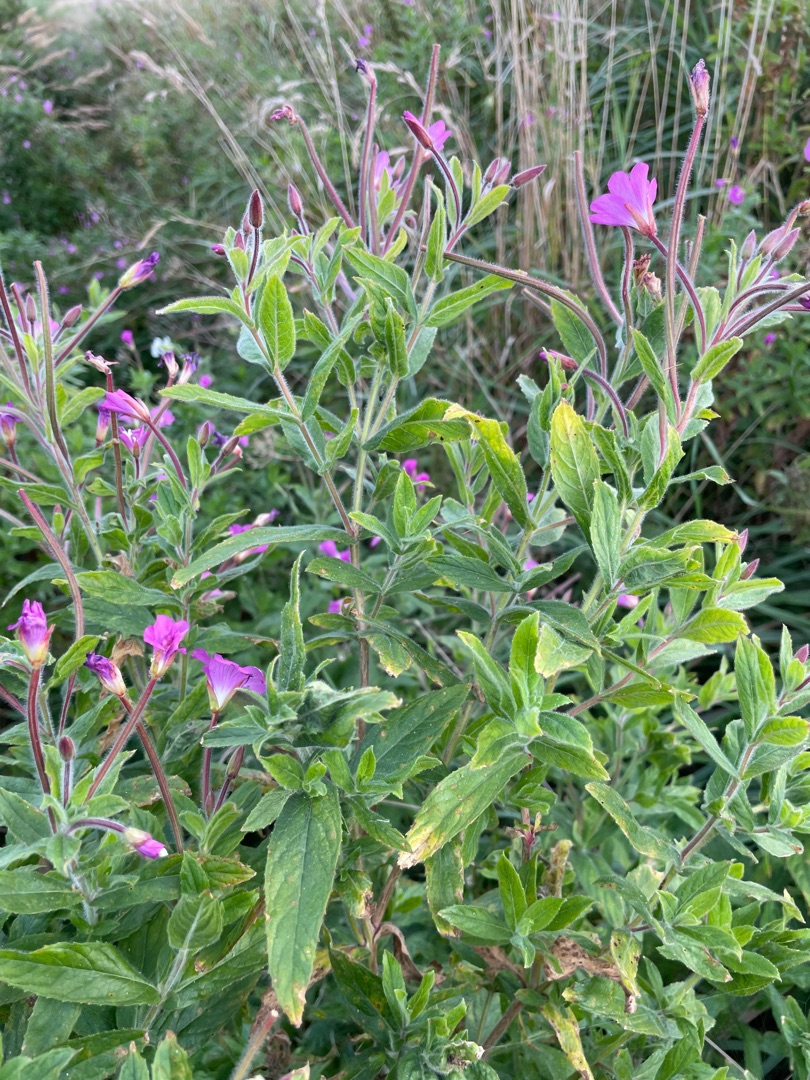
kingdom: Plantae
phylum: Tracheophyta
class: Magnoliopsida
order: Myrtales
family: Onagraceae
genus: Epilobium
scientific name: Epilobium hirsutum
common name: Lådden dueurt
